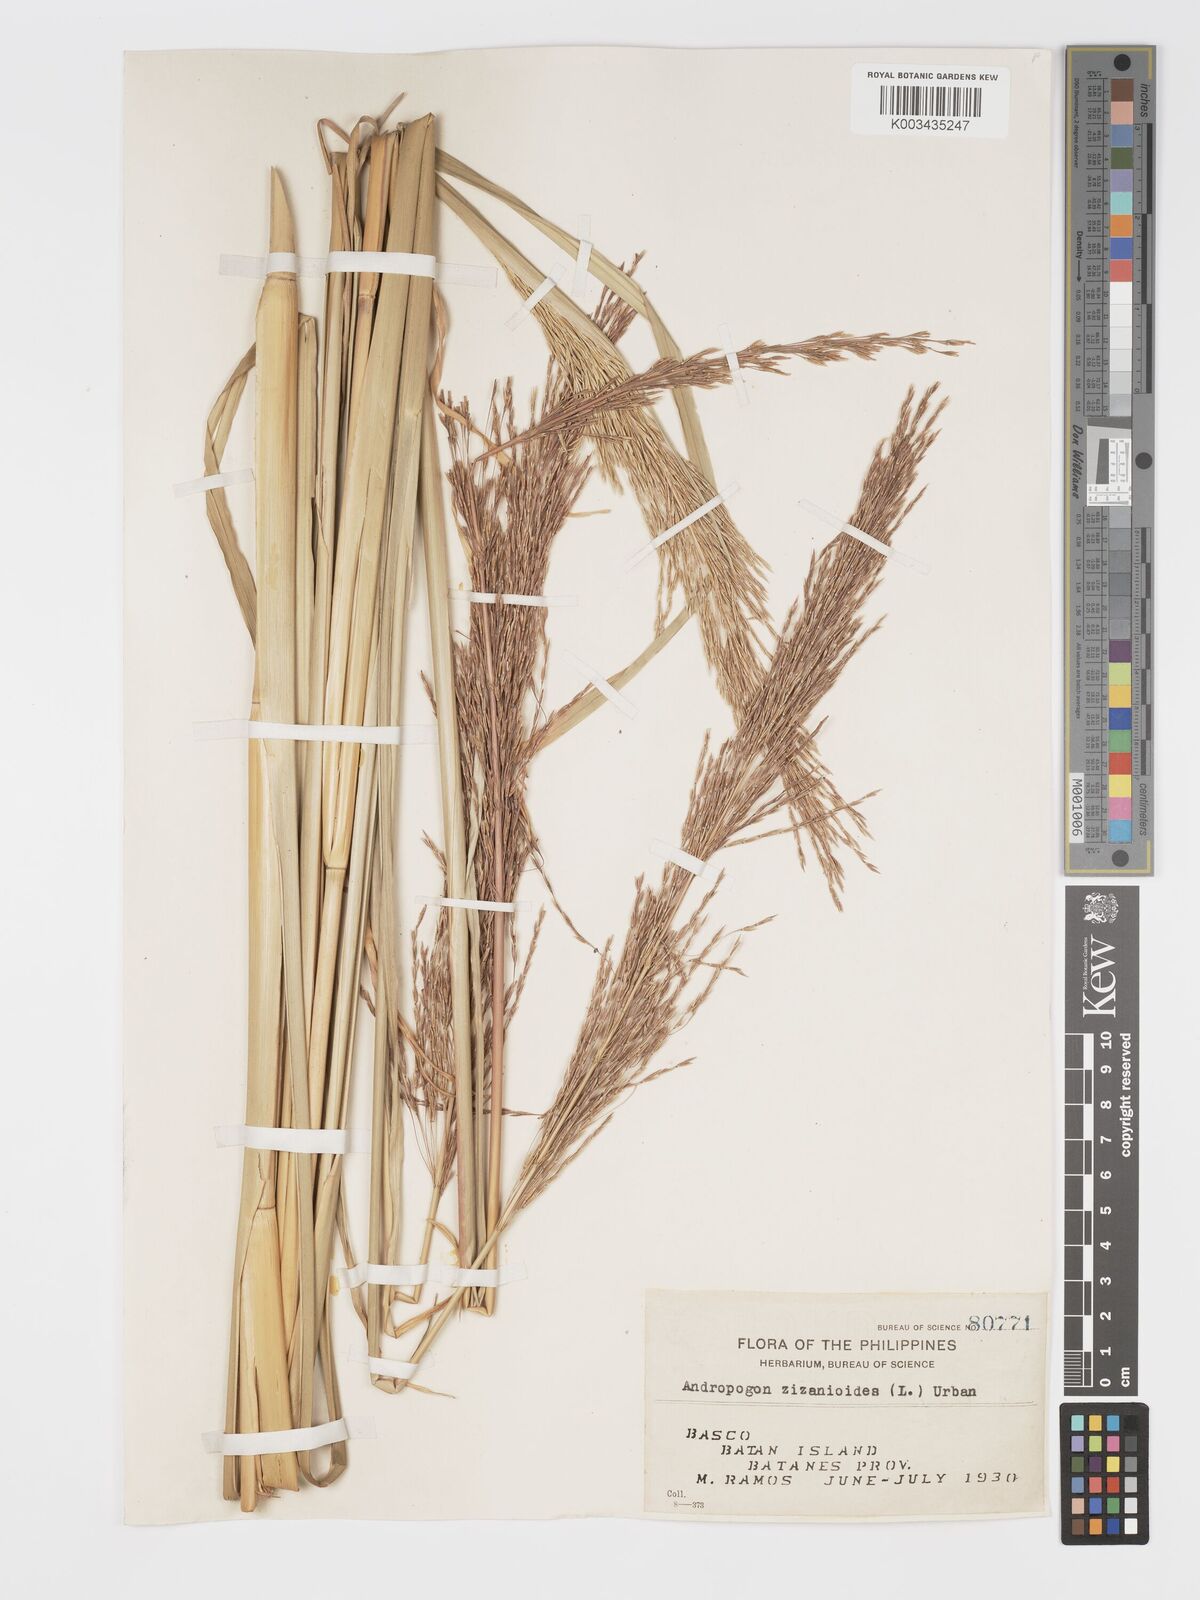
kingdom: Plantae
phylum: Tracheophyta
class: Liliopsida
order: Poales
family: Poaceae
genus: Chrysopogon
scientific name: Chrysopogon zizanioides
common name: False beardgrass
